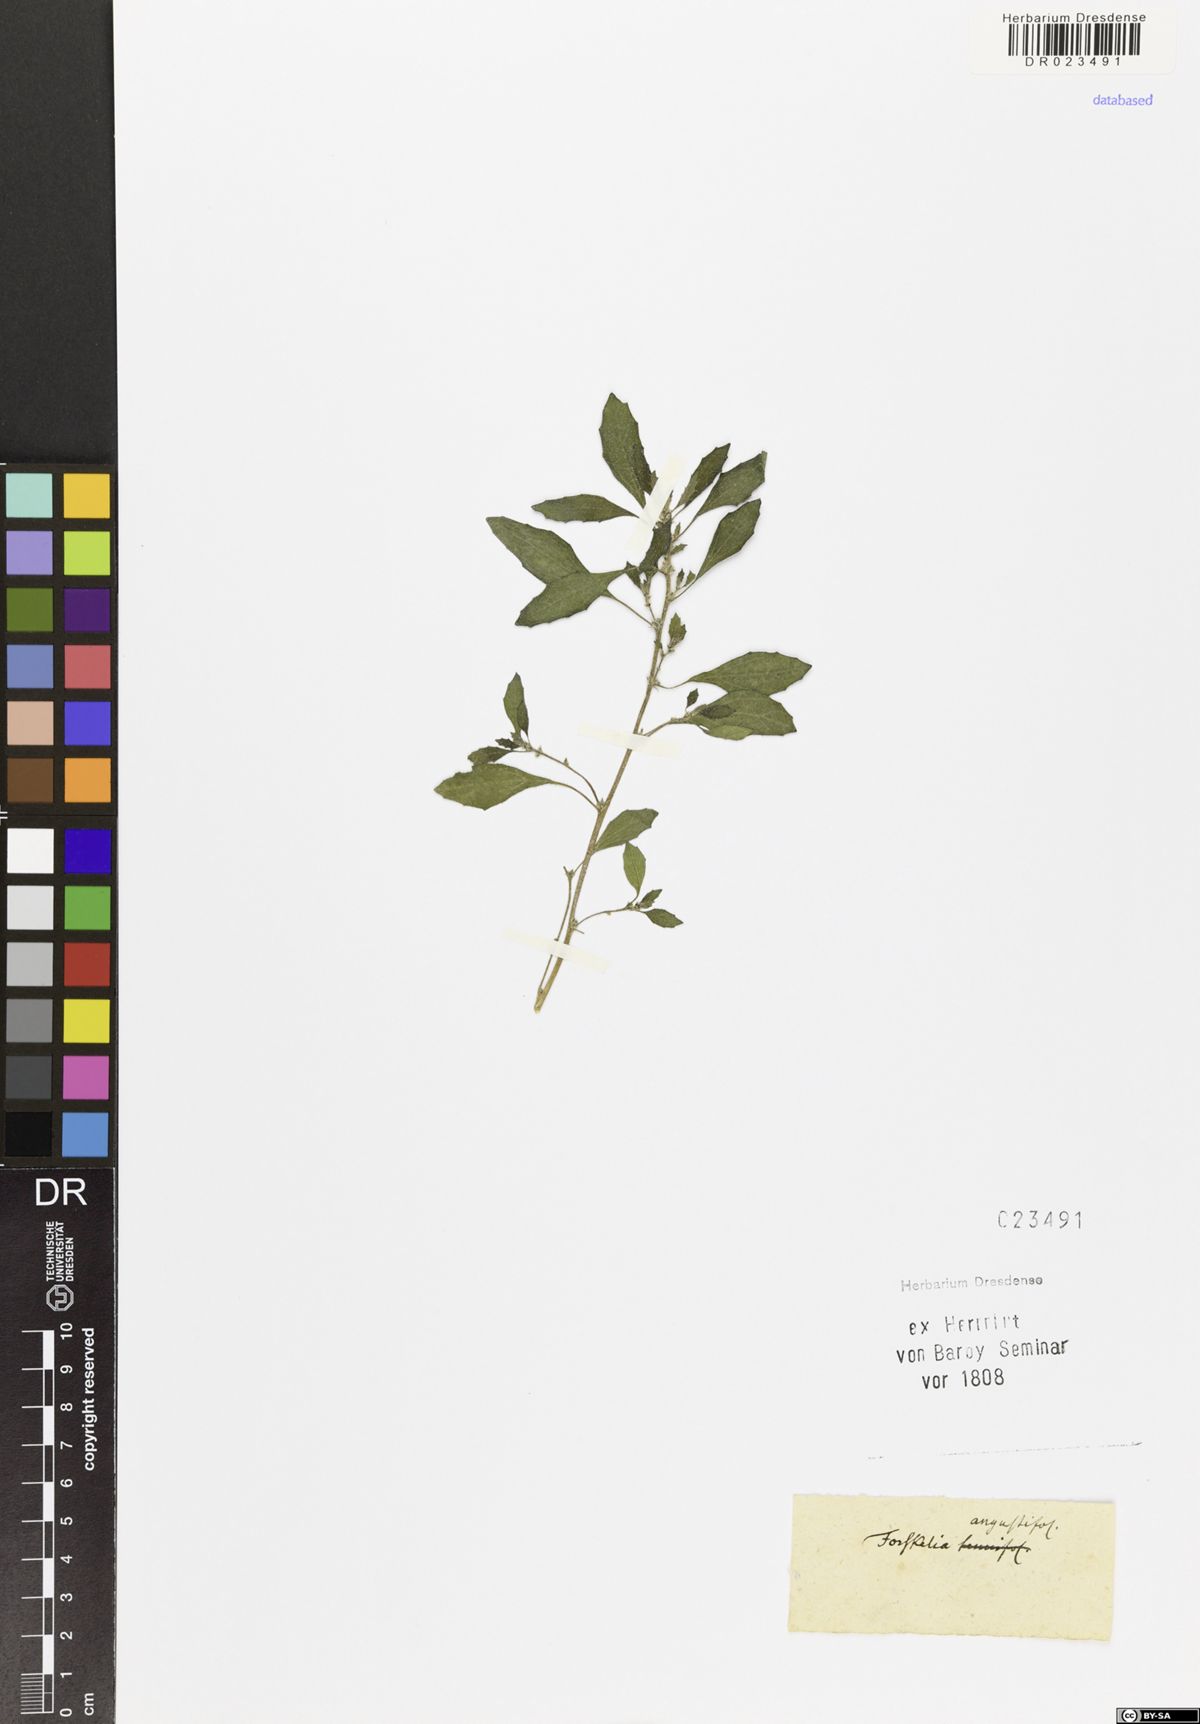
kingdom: Plantae
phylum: Tracheophyta
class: Magnoliopsida
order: Rosales
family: Urticaceae
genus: Forsskaolea
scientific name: Forsskaolea angustifolia
